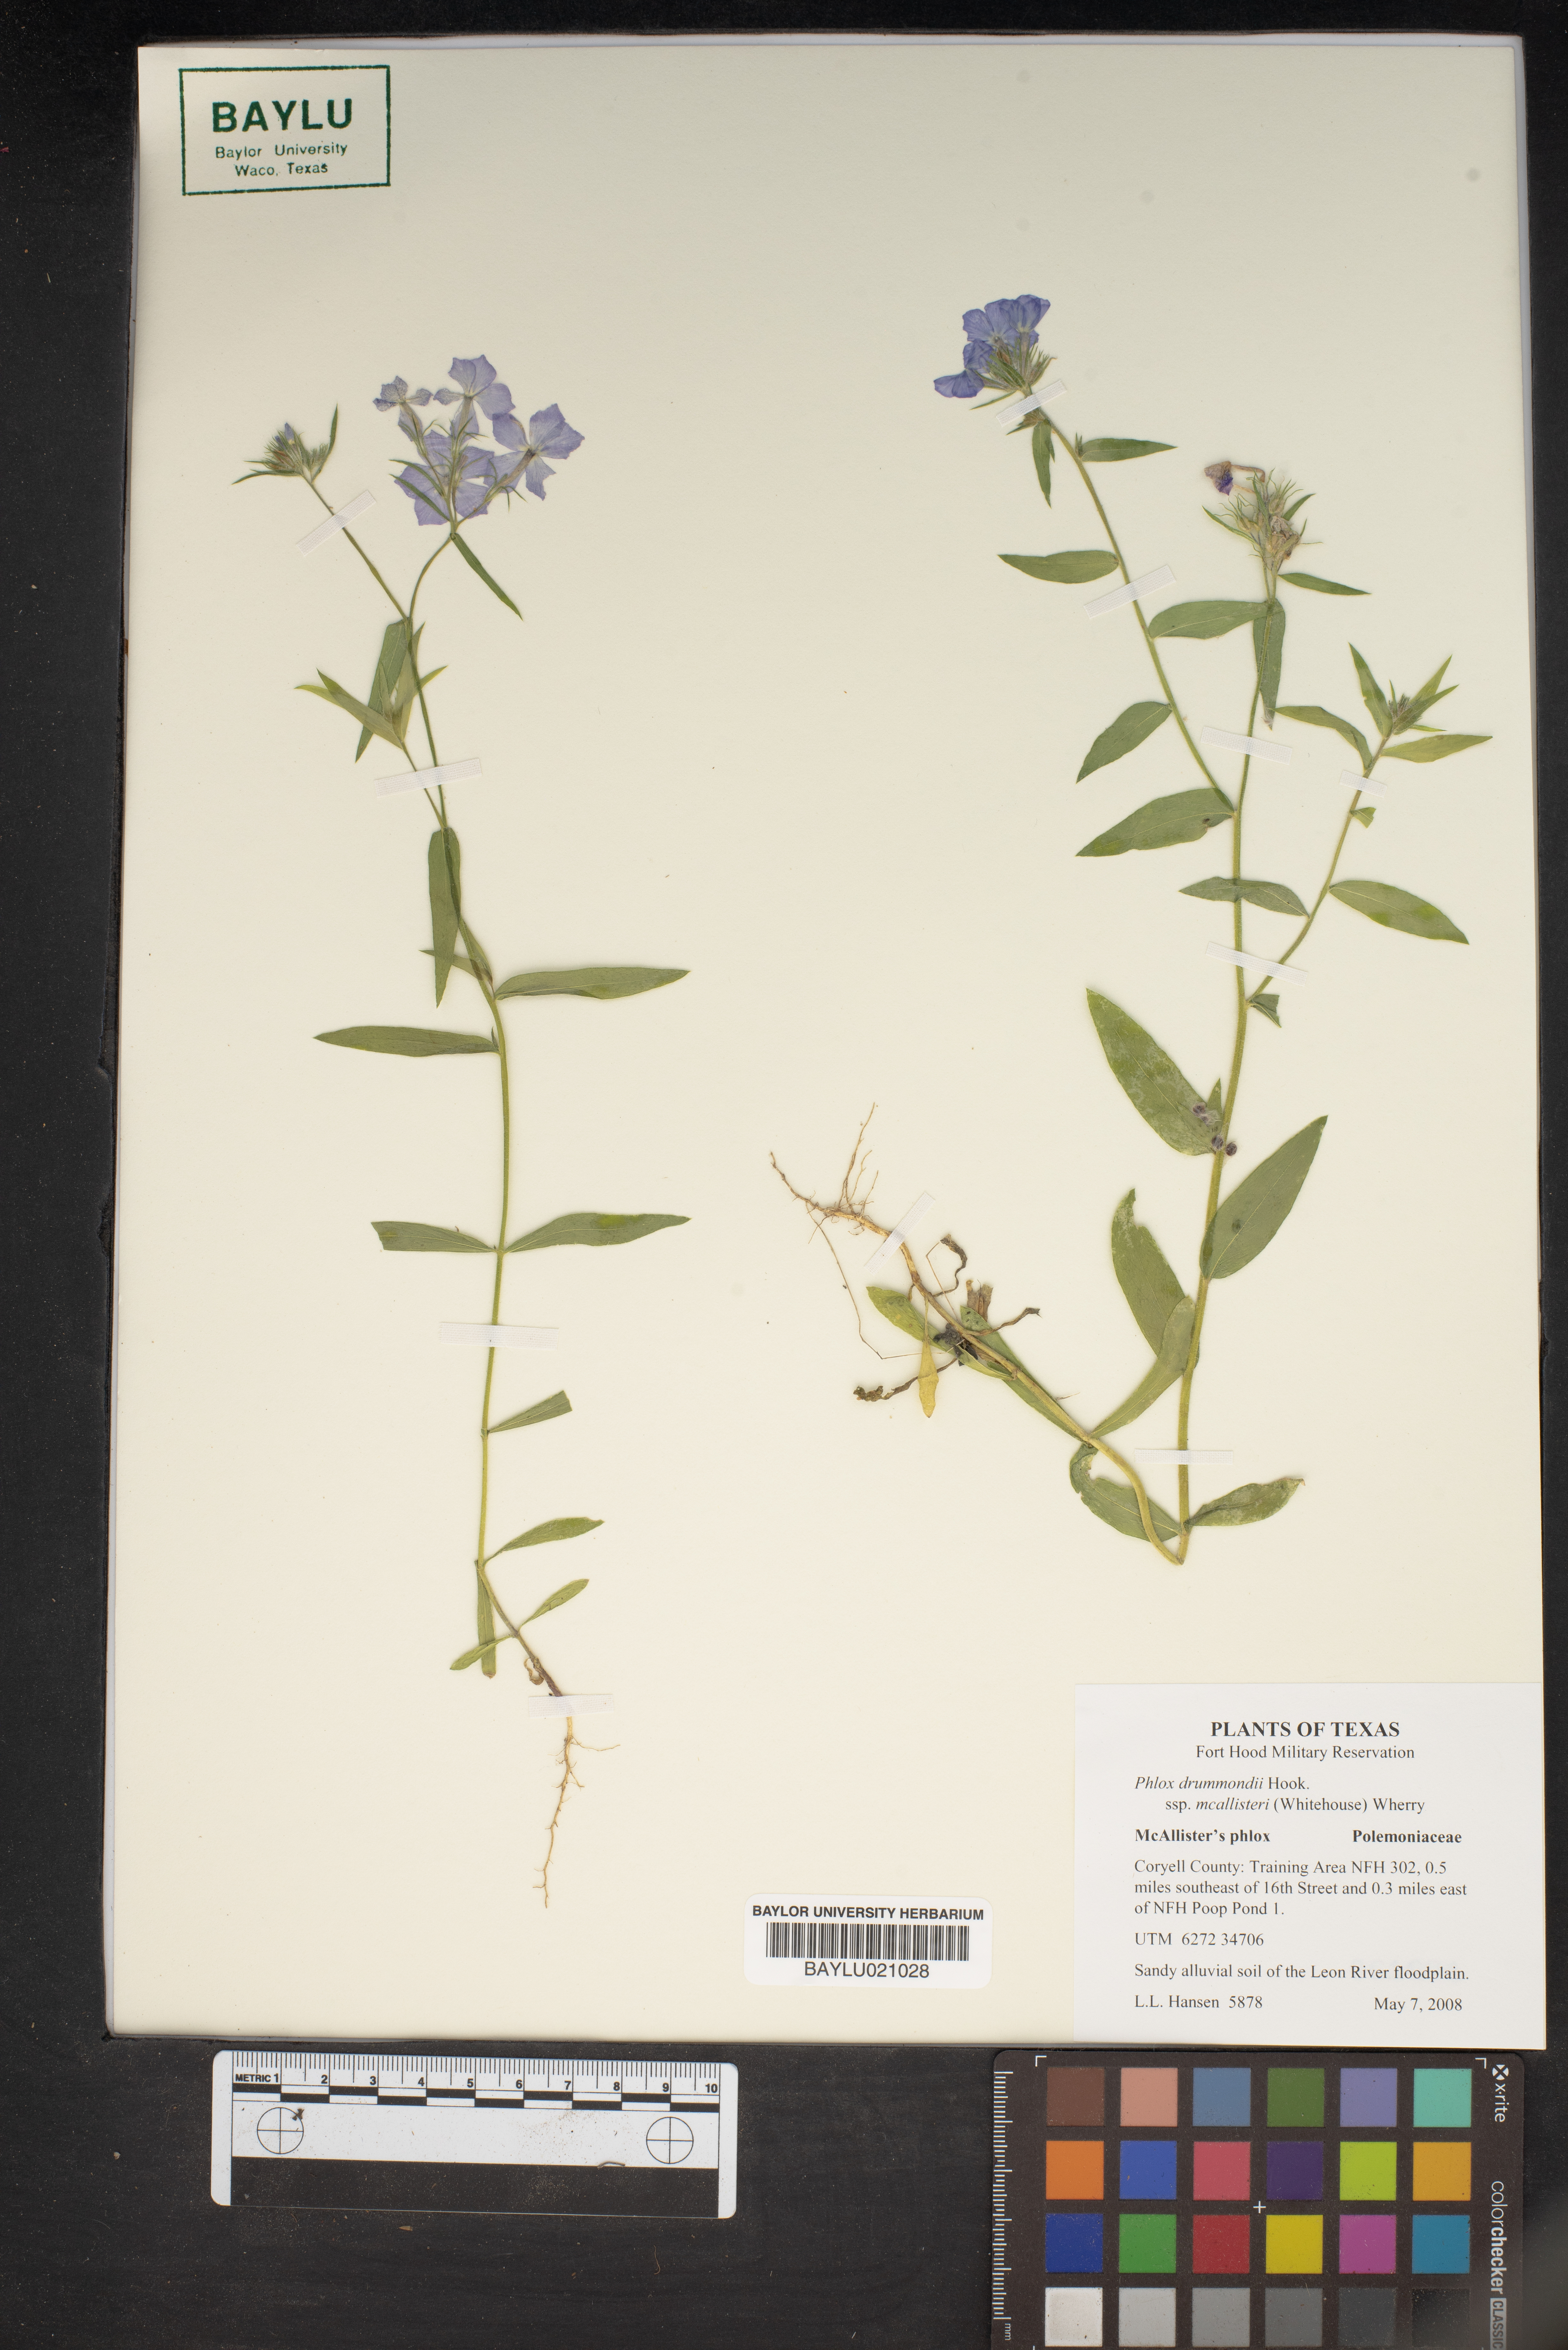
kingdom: Plantae
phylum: Tracheophyta
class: Magnoliopsida
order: Ericales
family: Polemoniaceae
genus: Phlox
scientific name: Phlox drummondii
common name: Drummond's phlox
